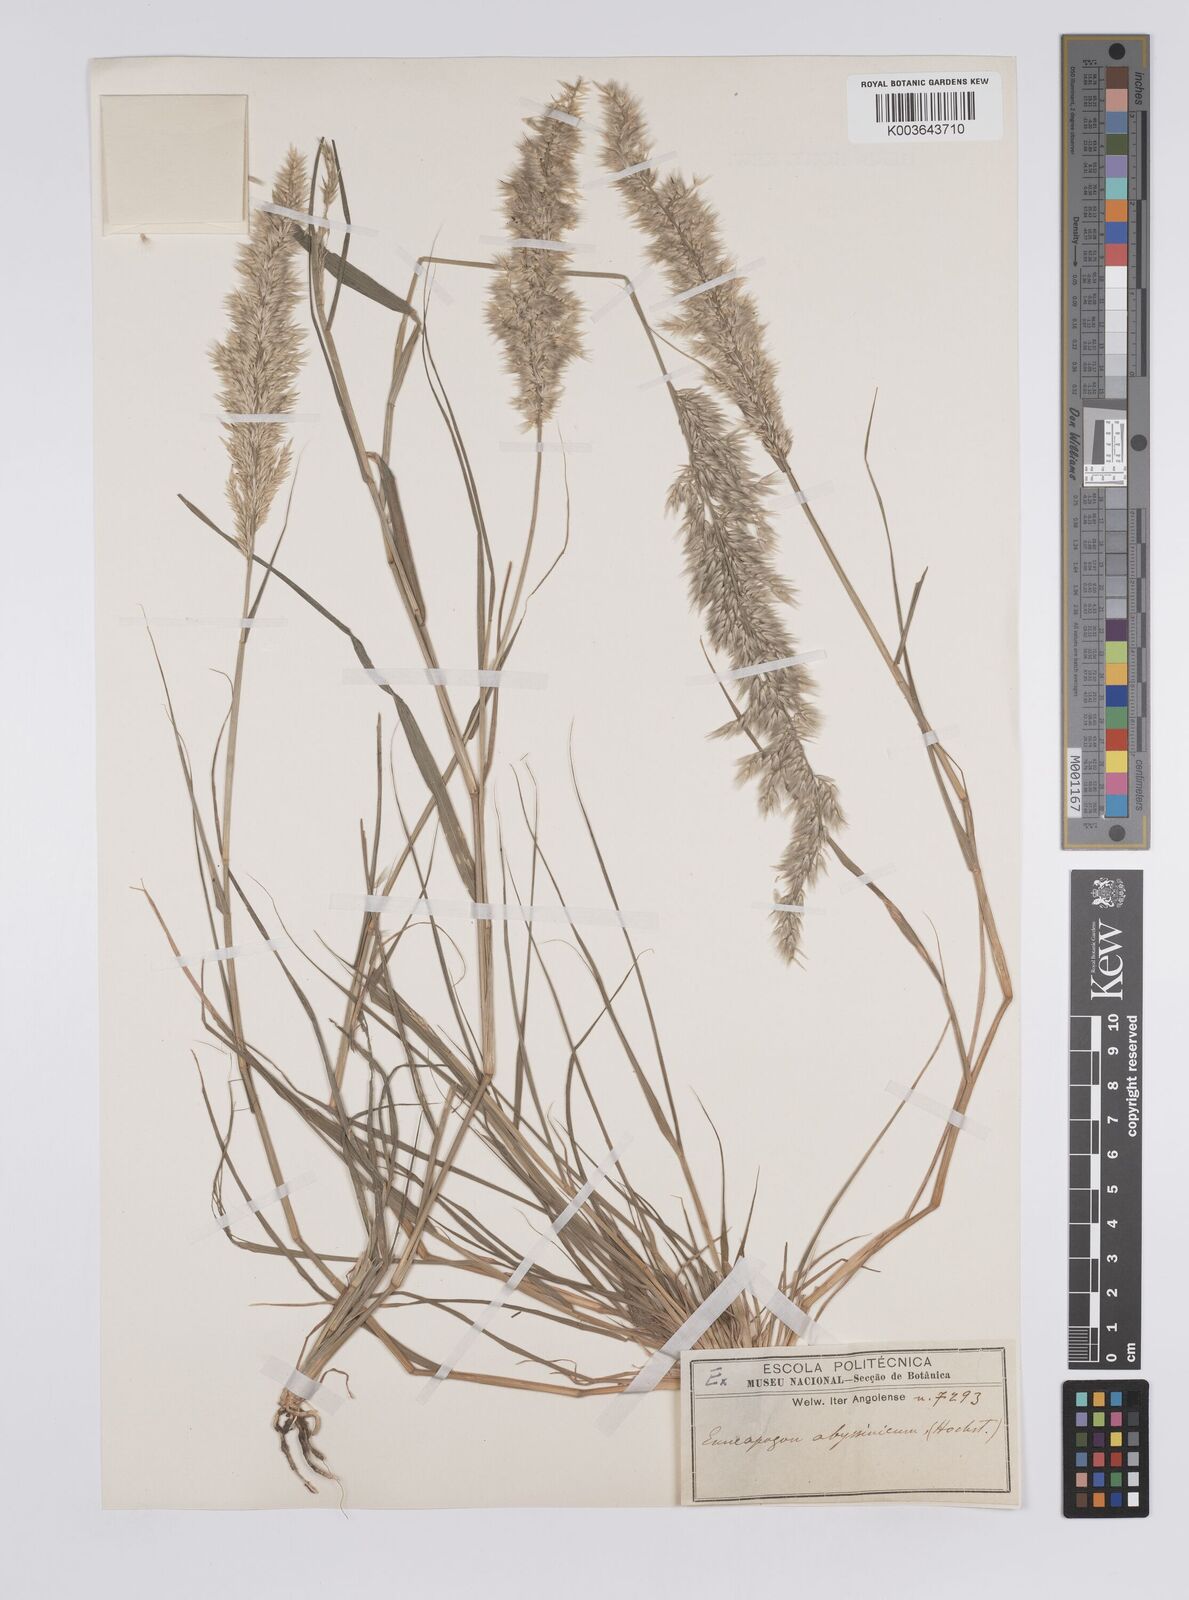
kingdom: Plantae
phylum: Tracheophyta
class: Liliopsida
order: Poales
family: Poaceae
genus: Enneapogon
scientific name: Enneapogon cenchroides
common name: Soft feather pappusgrass
